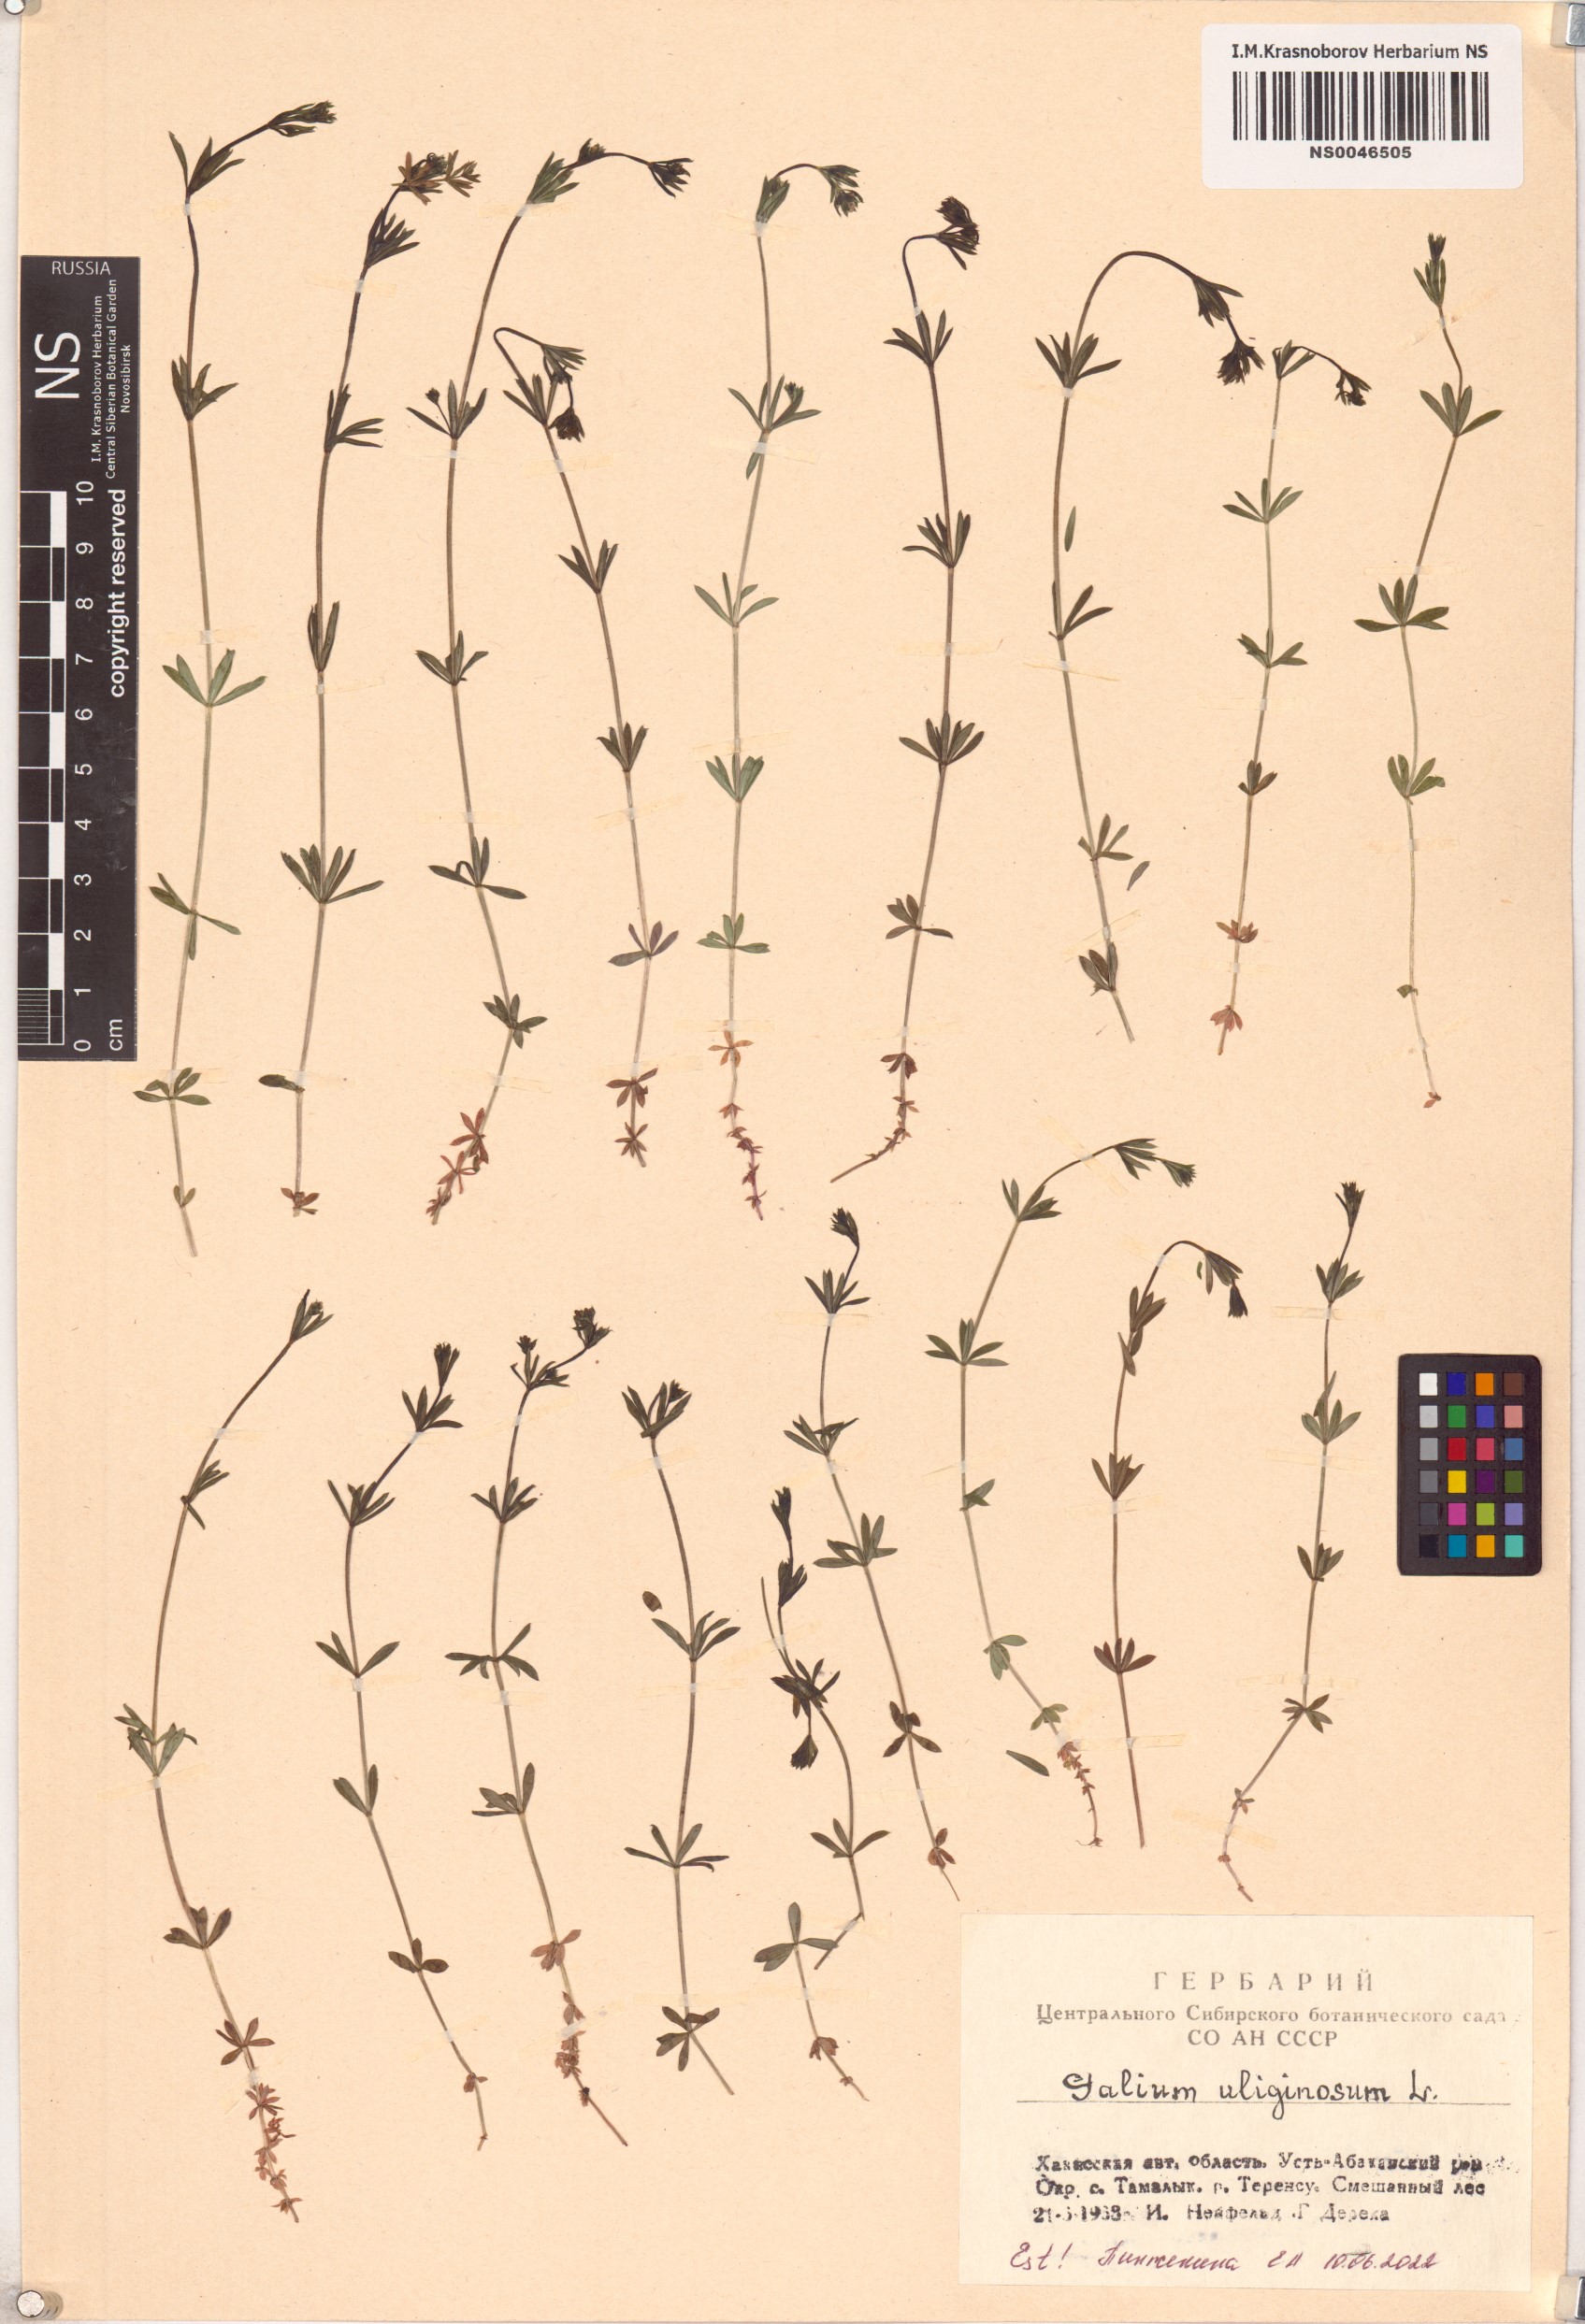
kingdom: Plantae
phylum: Tracheophyta
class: Magnoliopsida
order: Gentianales
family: Rubiaceae
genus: Galium
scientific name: Galium uliginosum
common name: Fen bedstraw
